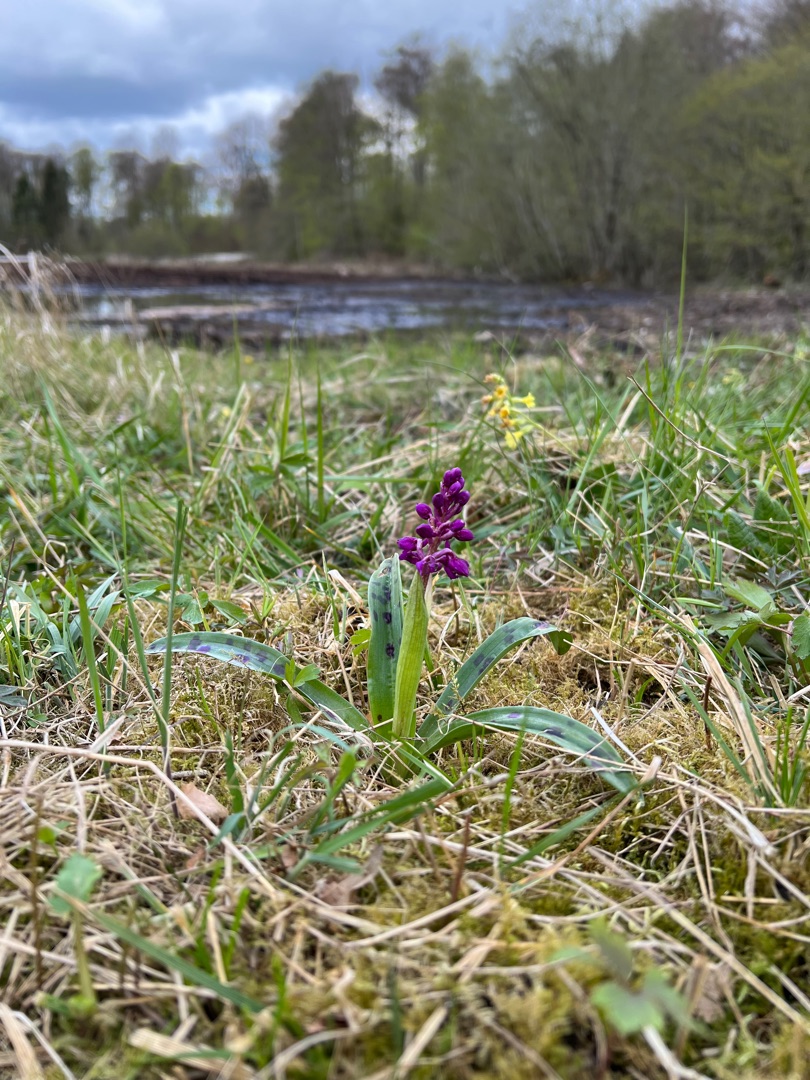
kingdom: Plantae
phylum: Tracheophyta
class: Liliopsida
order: Asparagales
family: Orchidaceae
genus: Orchis
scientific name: Orchis mascula
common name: Tyndakset gøgeurt
